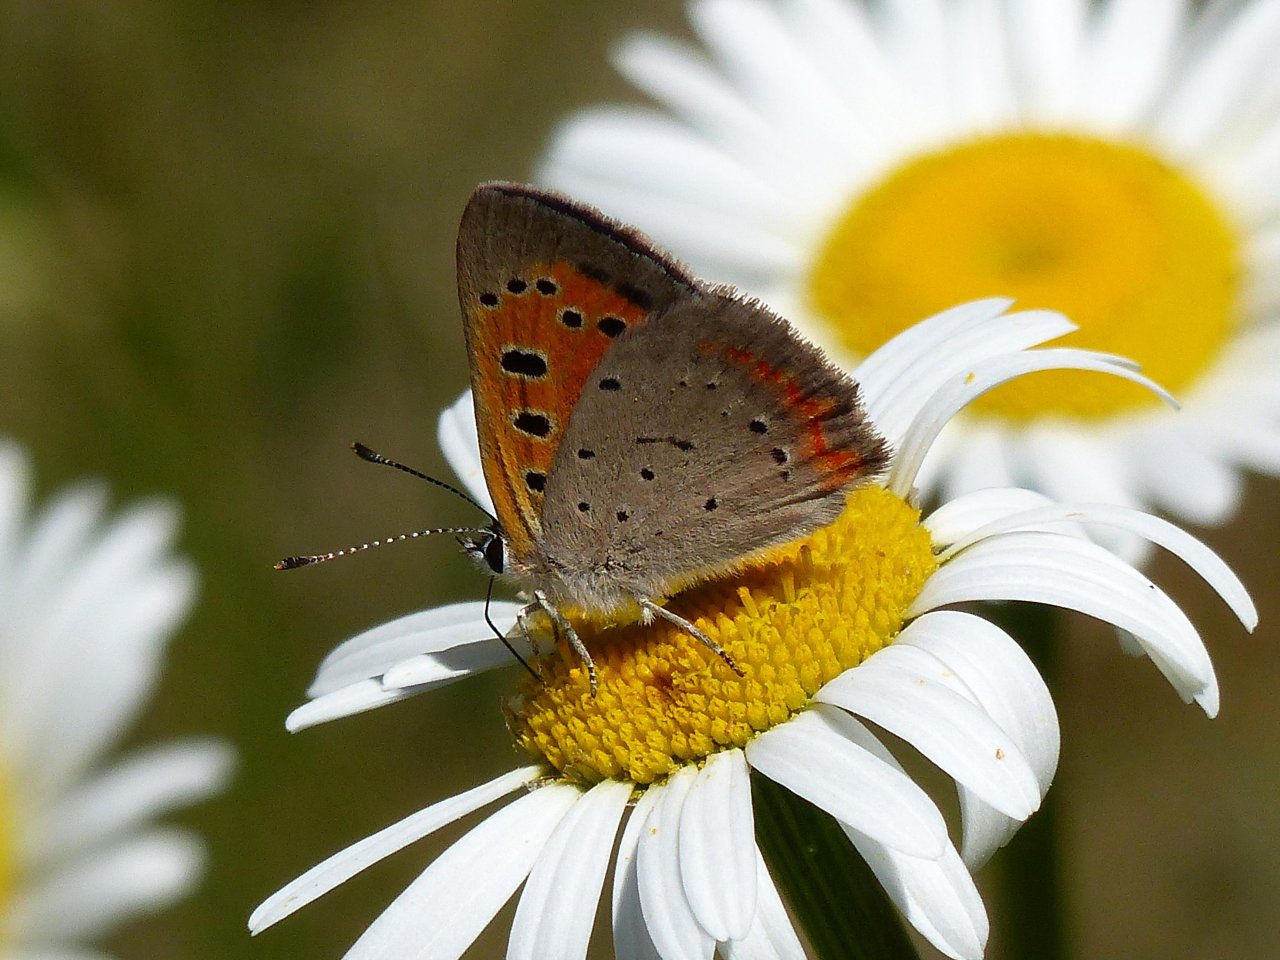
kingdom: Animalia
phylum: Arthropoda
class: Insecta
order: Lepidoptera
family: Lycaenidae
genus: Lycaena
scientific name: Lycaena phlaeas
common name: American Copper
